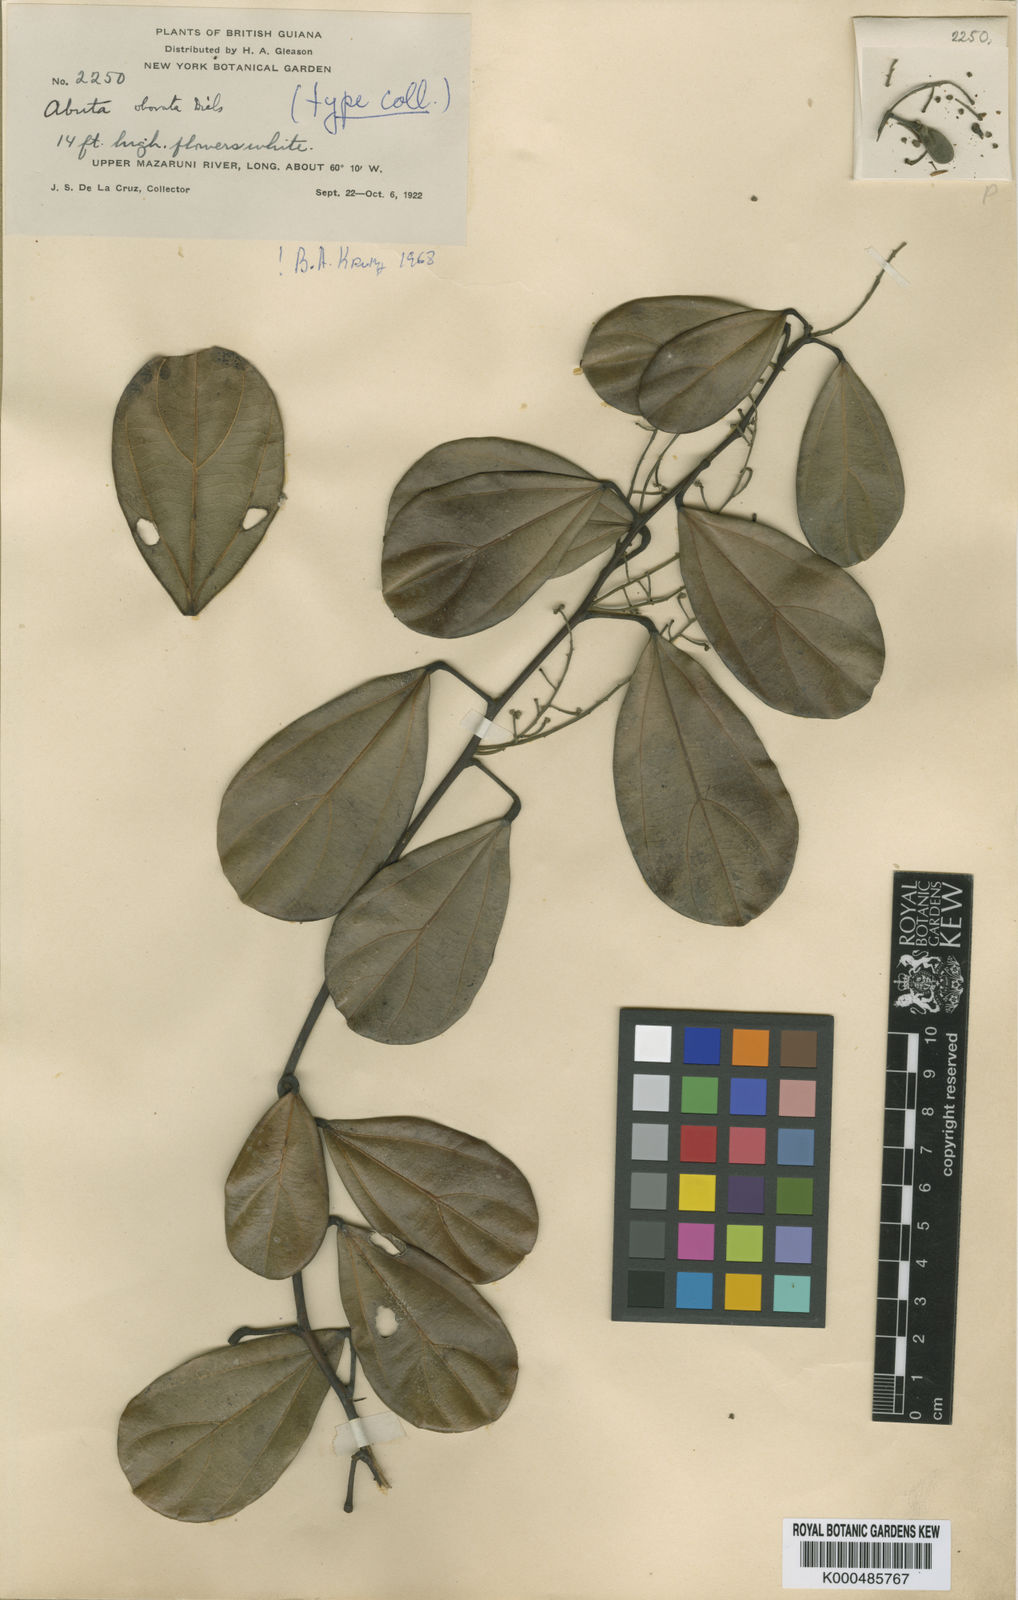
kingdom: Plantae
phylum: Tracheophyta
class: Magnoliopsida
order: Ranunculales
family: Menispermaceae
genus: Abuta
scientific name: Abuta obovata
